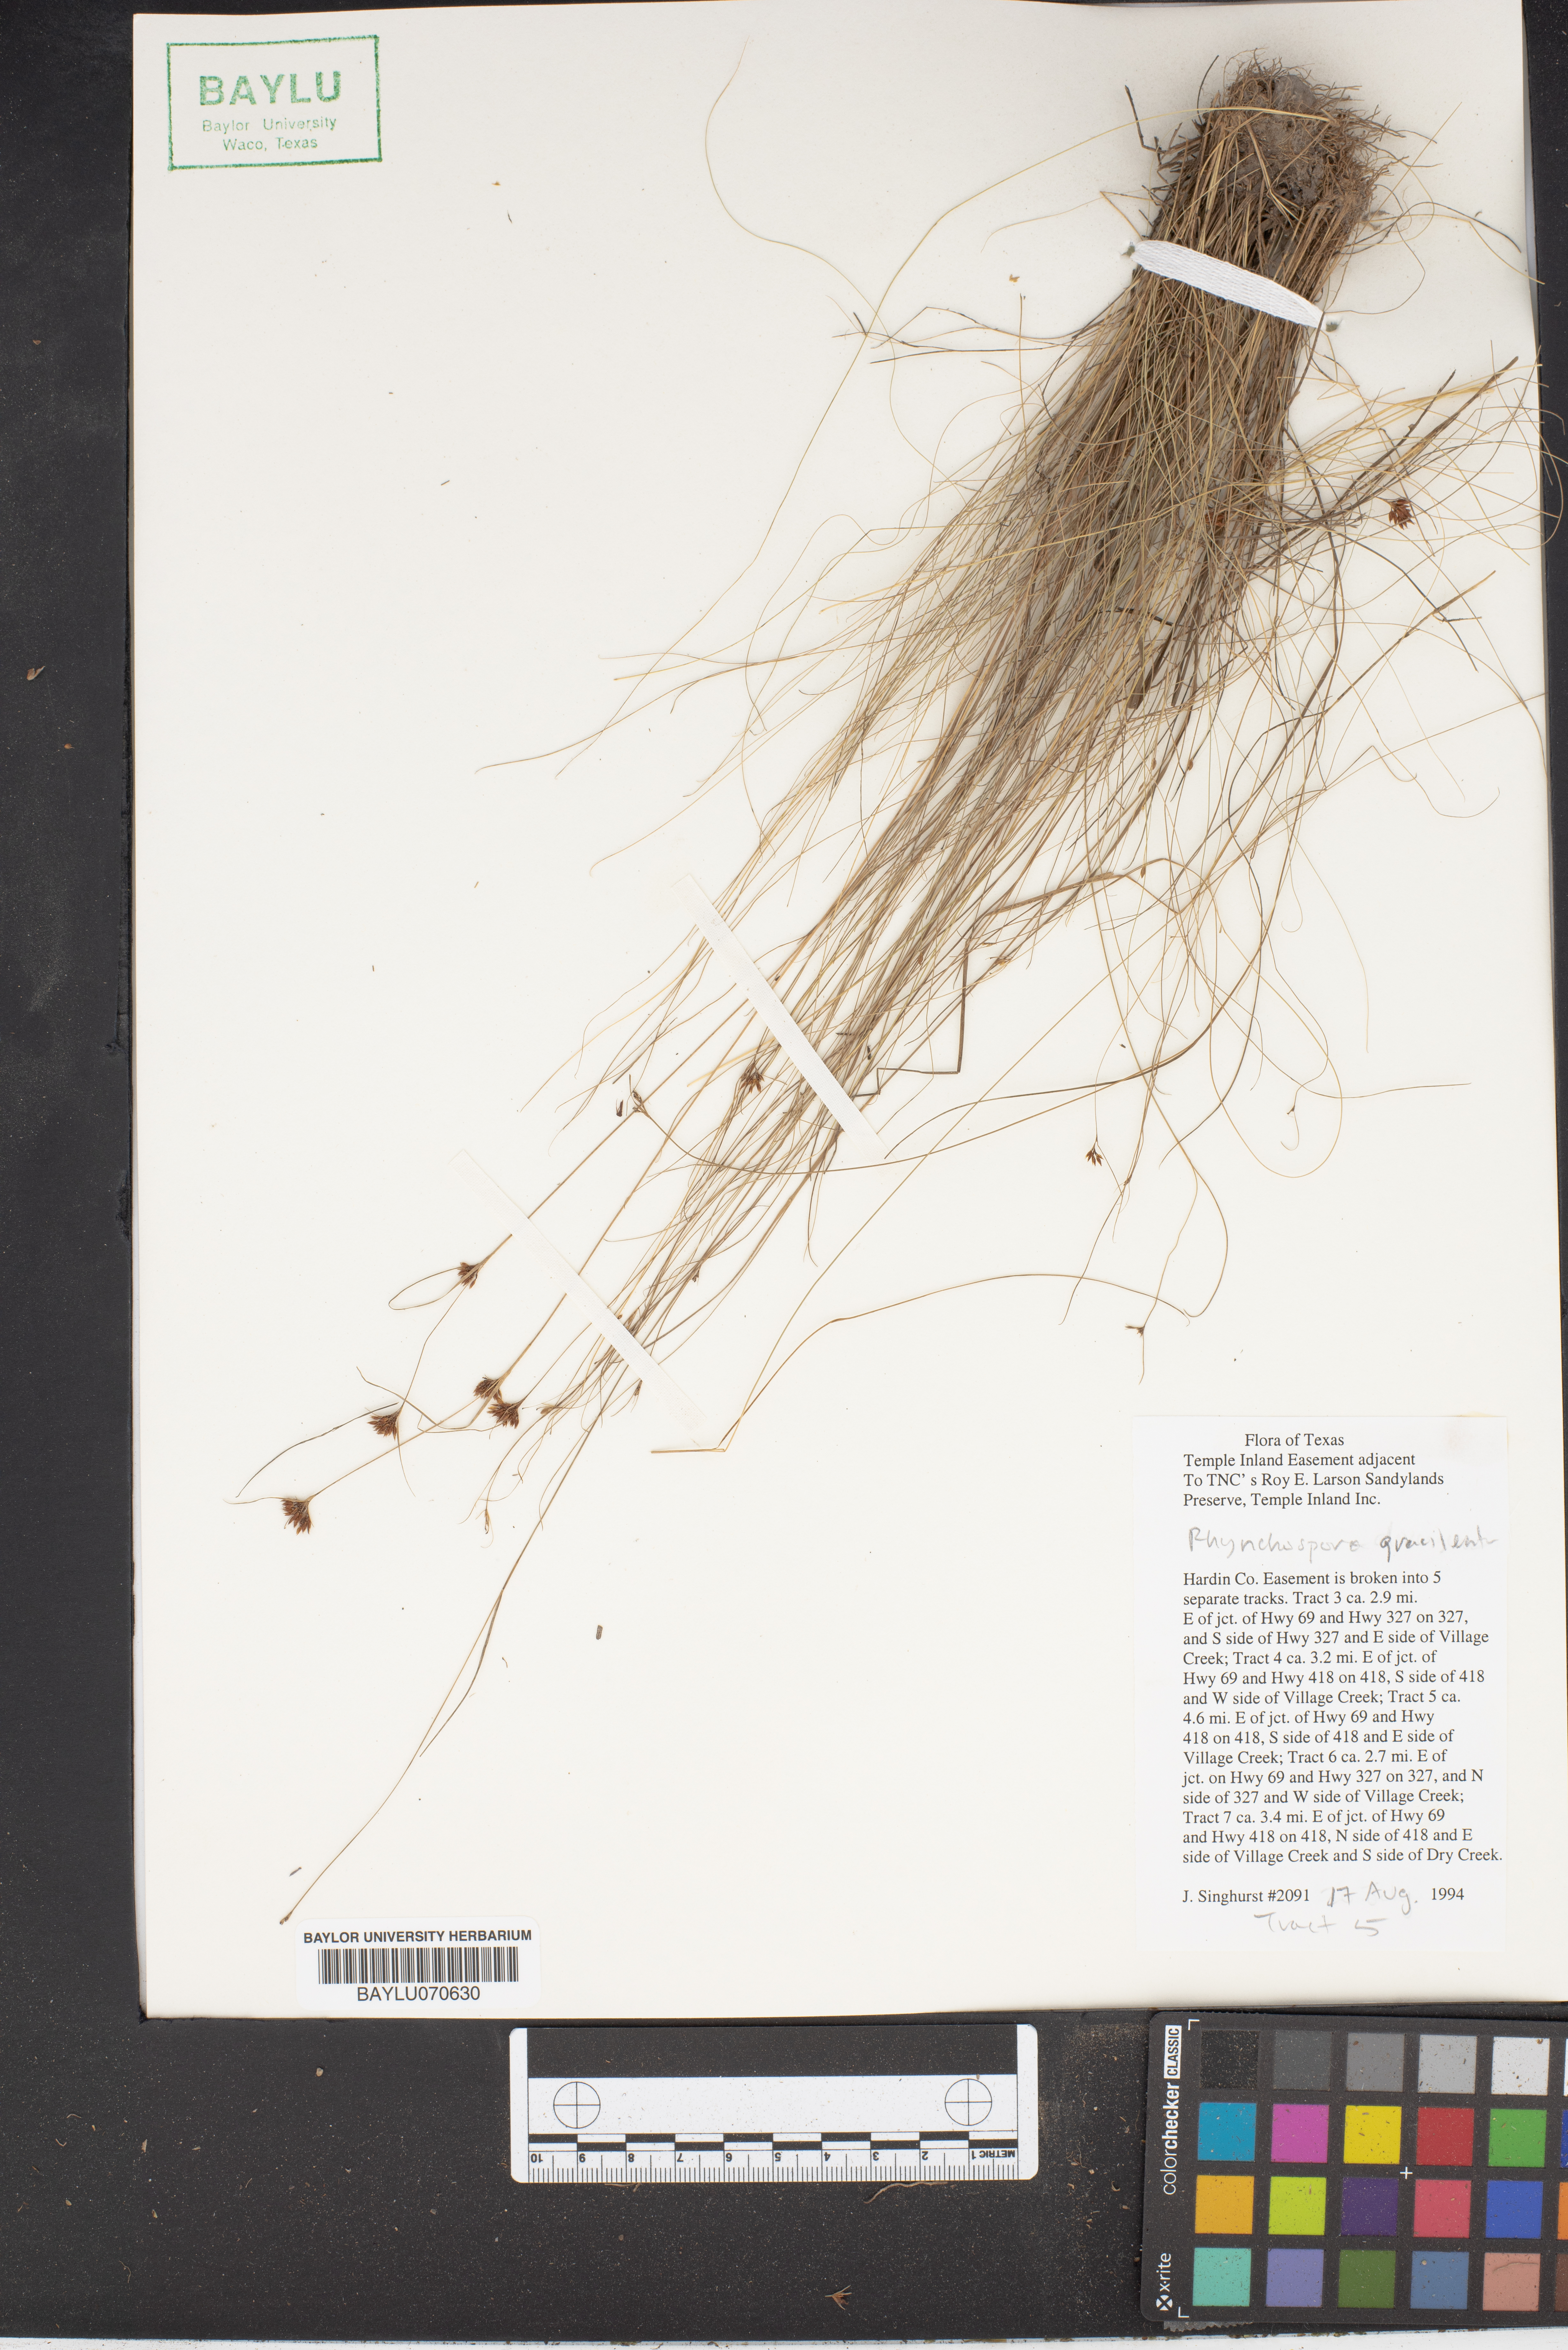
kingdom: Plantae
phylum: Tracheophyta
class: Liliopsida
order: Poales
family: Cyperaceae
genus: Rhynchospora
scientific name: Rhynchospora gracilenta
